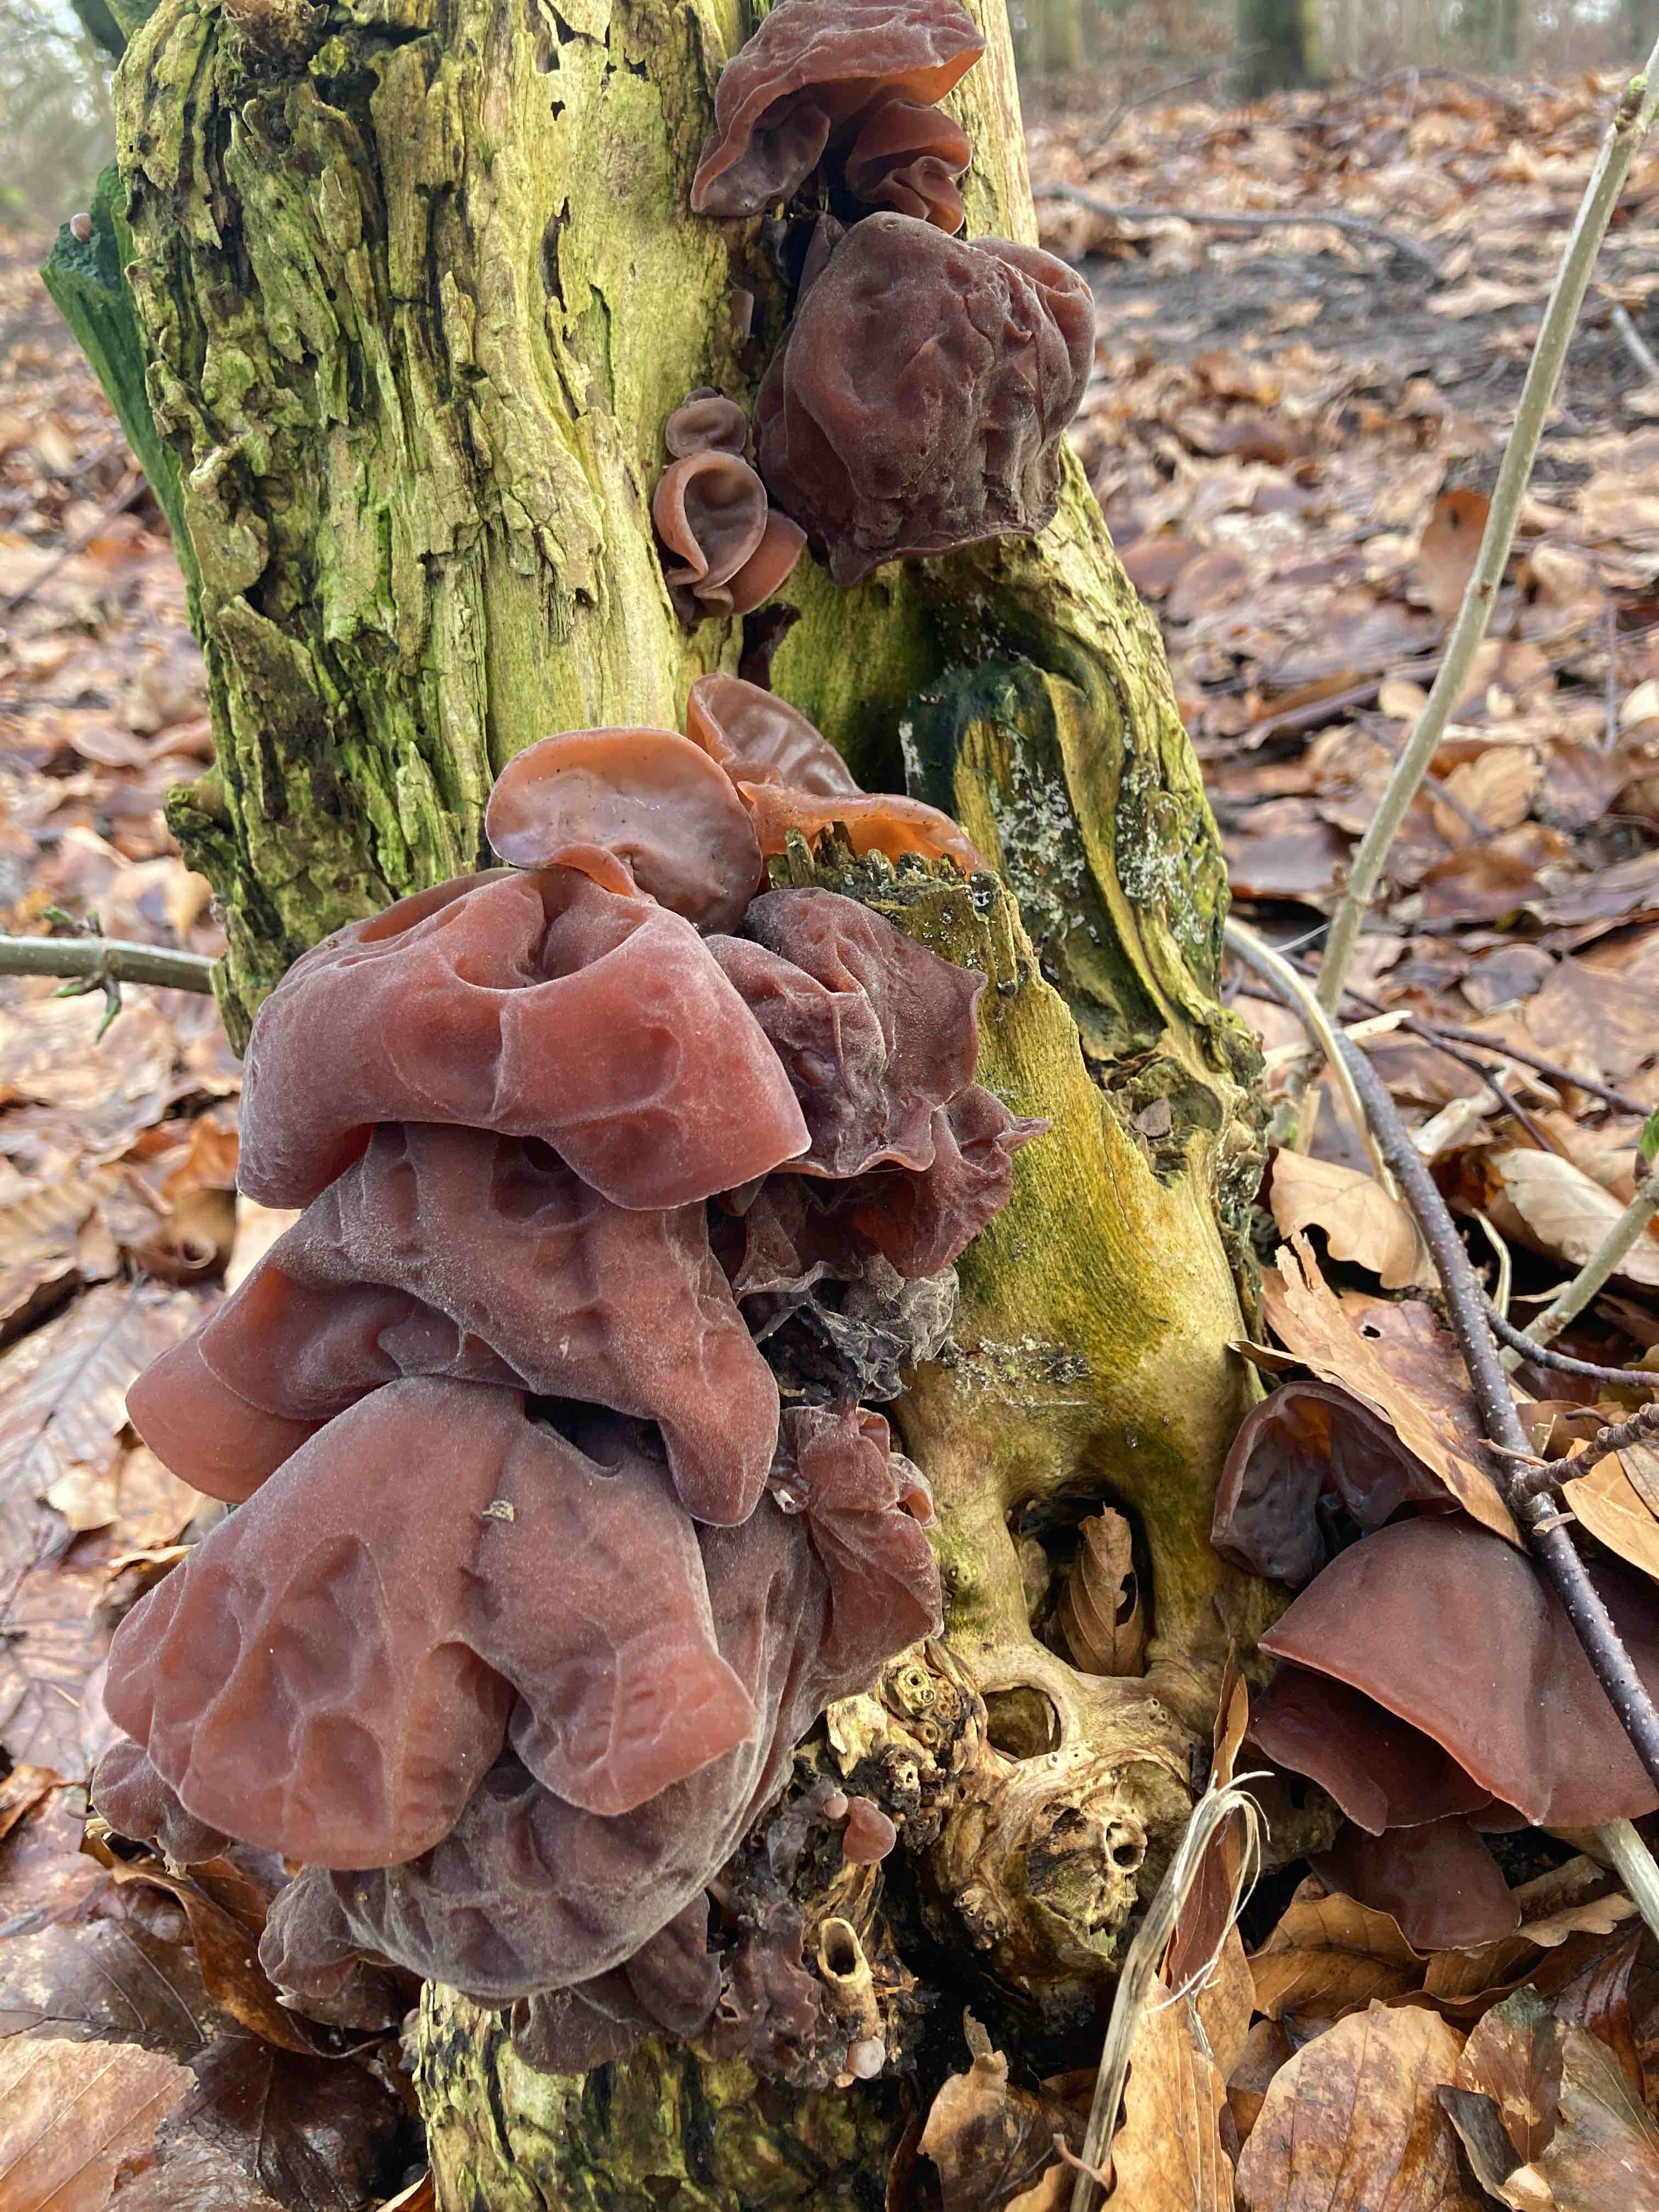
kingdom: Fungi
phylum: Basidiomycota
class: Agaricomycetes
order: Auriculariales
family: Auriculariaceae
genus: Auricularia
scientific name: Auricularia auricula-judae
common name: almindelig judasøre
